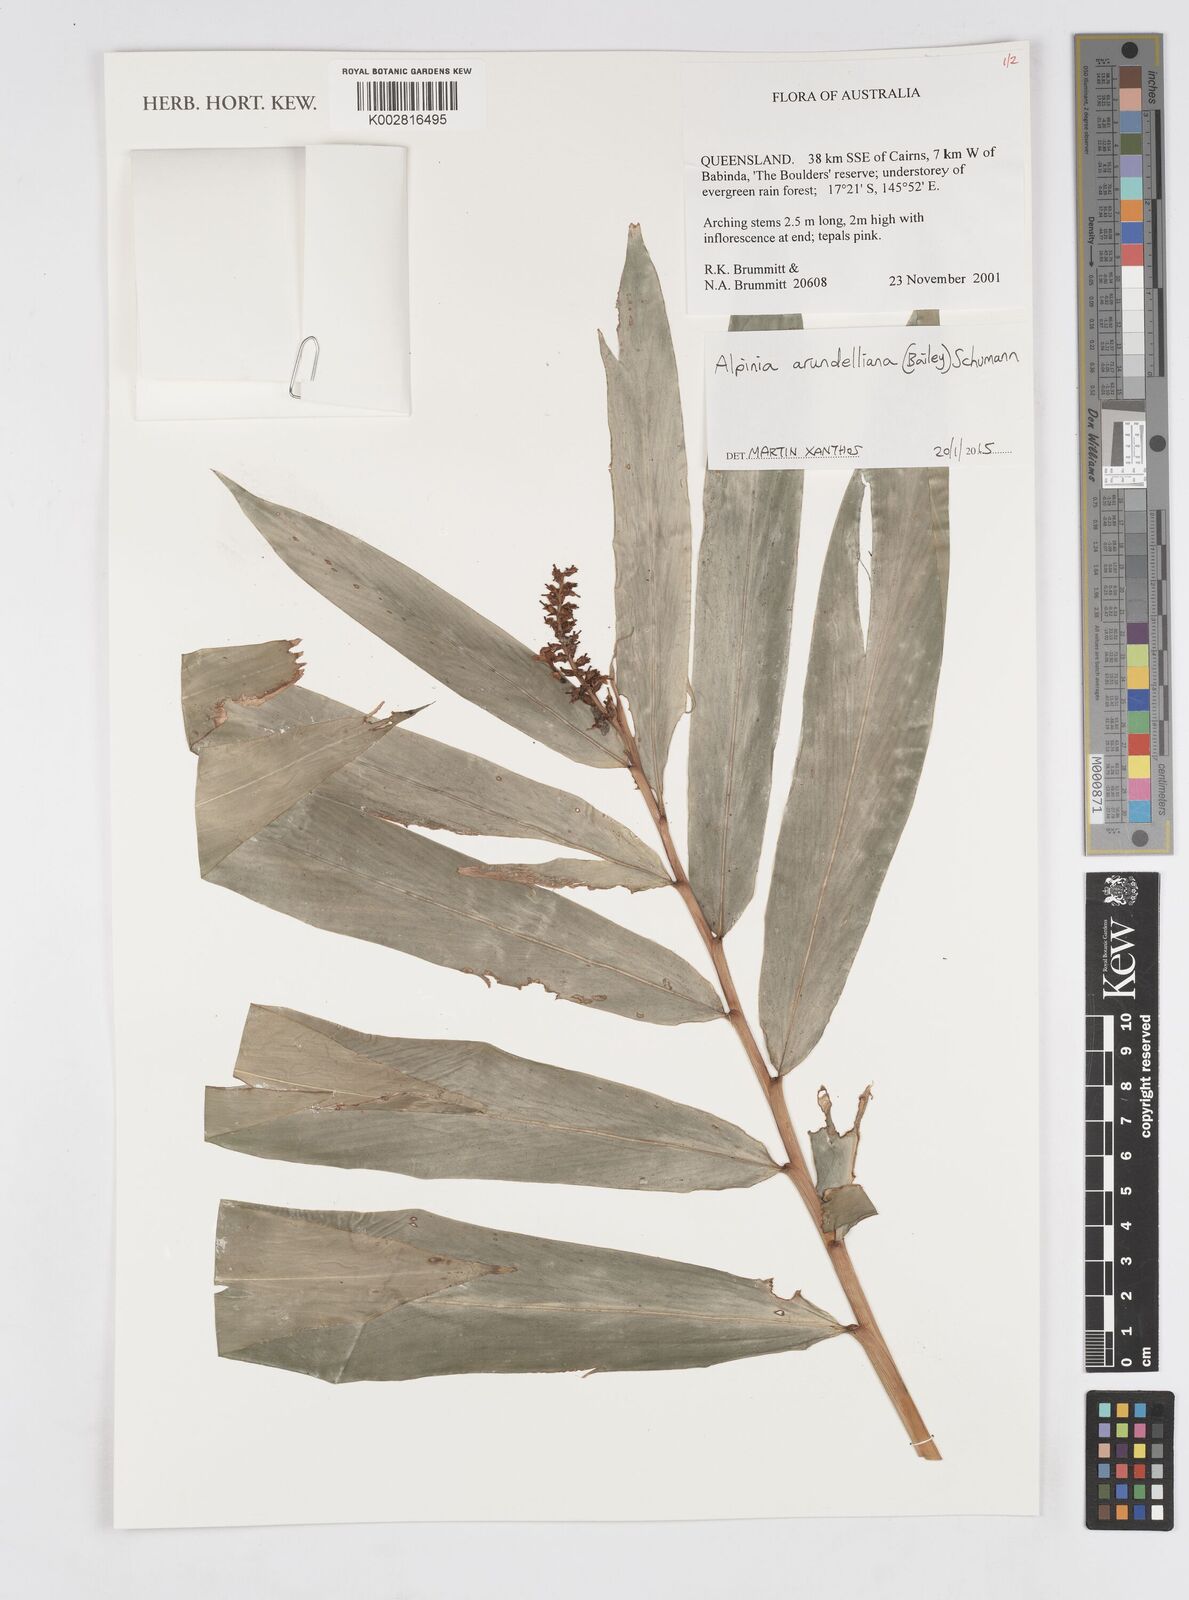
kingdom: Plantae
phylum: Tracheophyta
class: Liliopsida
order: Zingiberales
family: Zingiberaceae
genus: Alpinia
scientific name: Alpinia arundelliana
